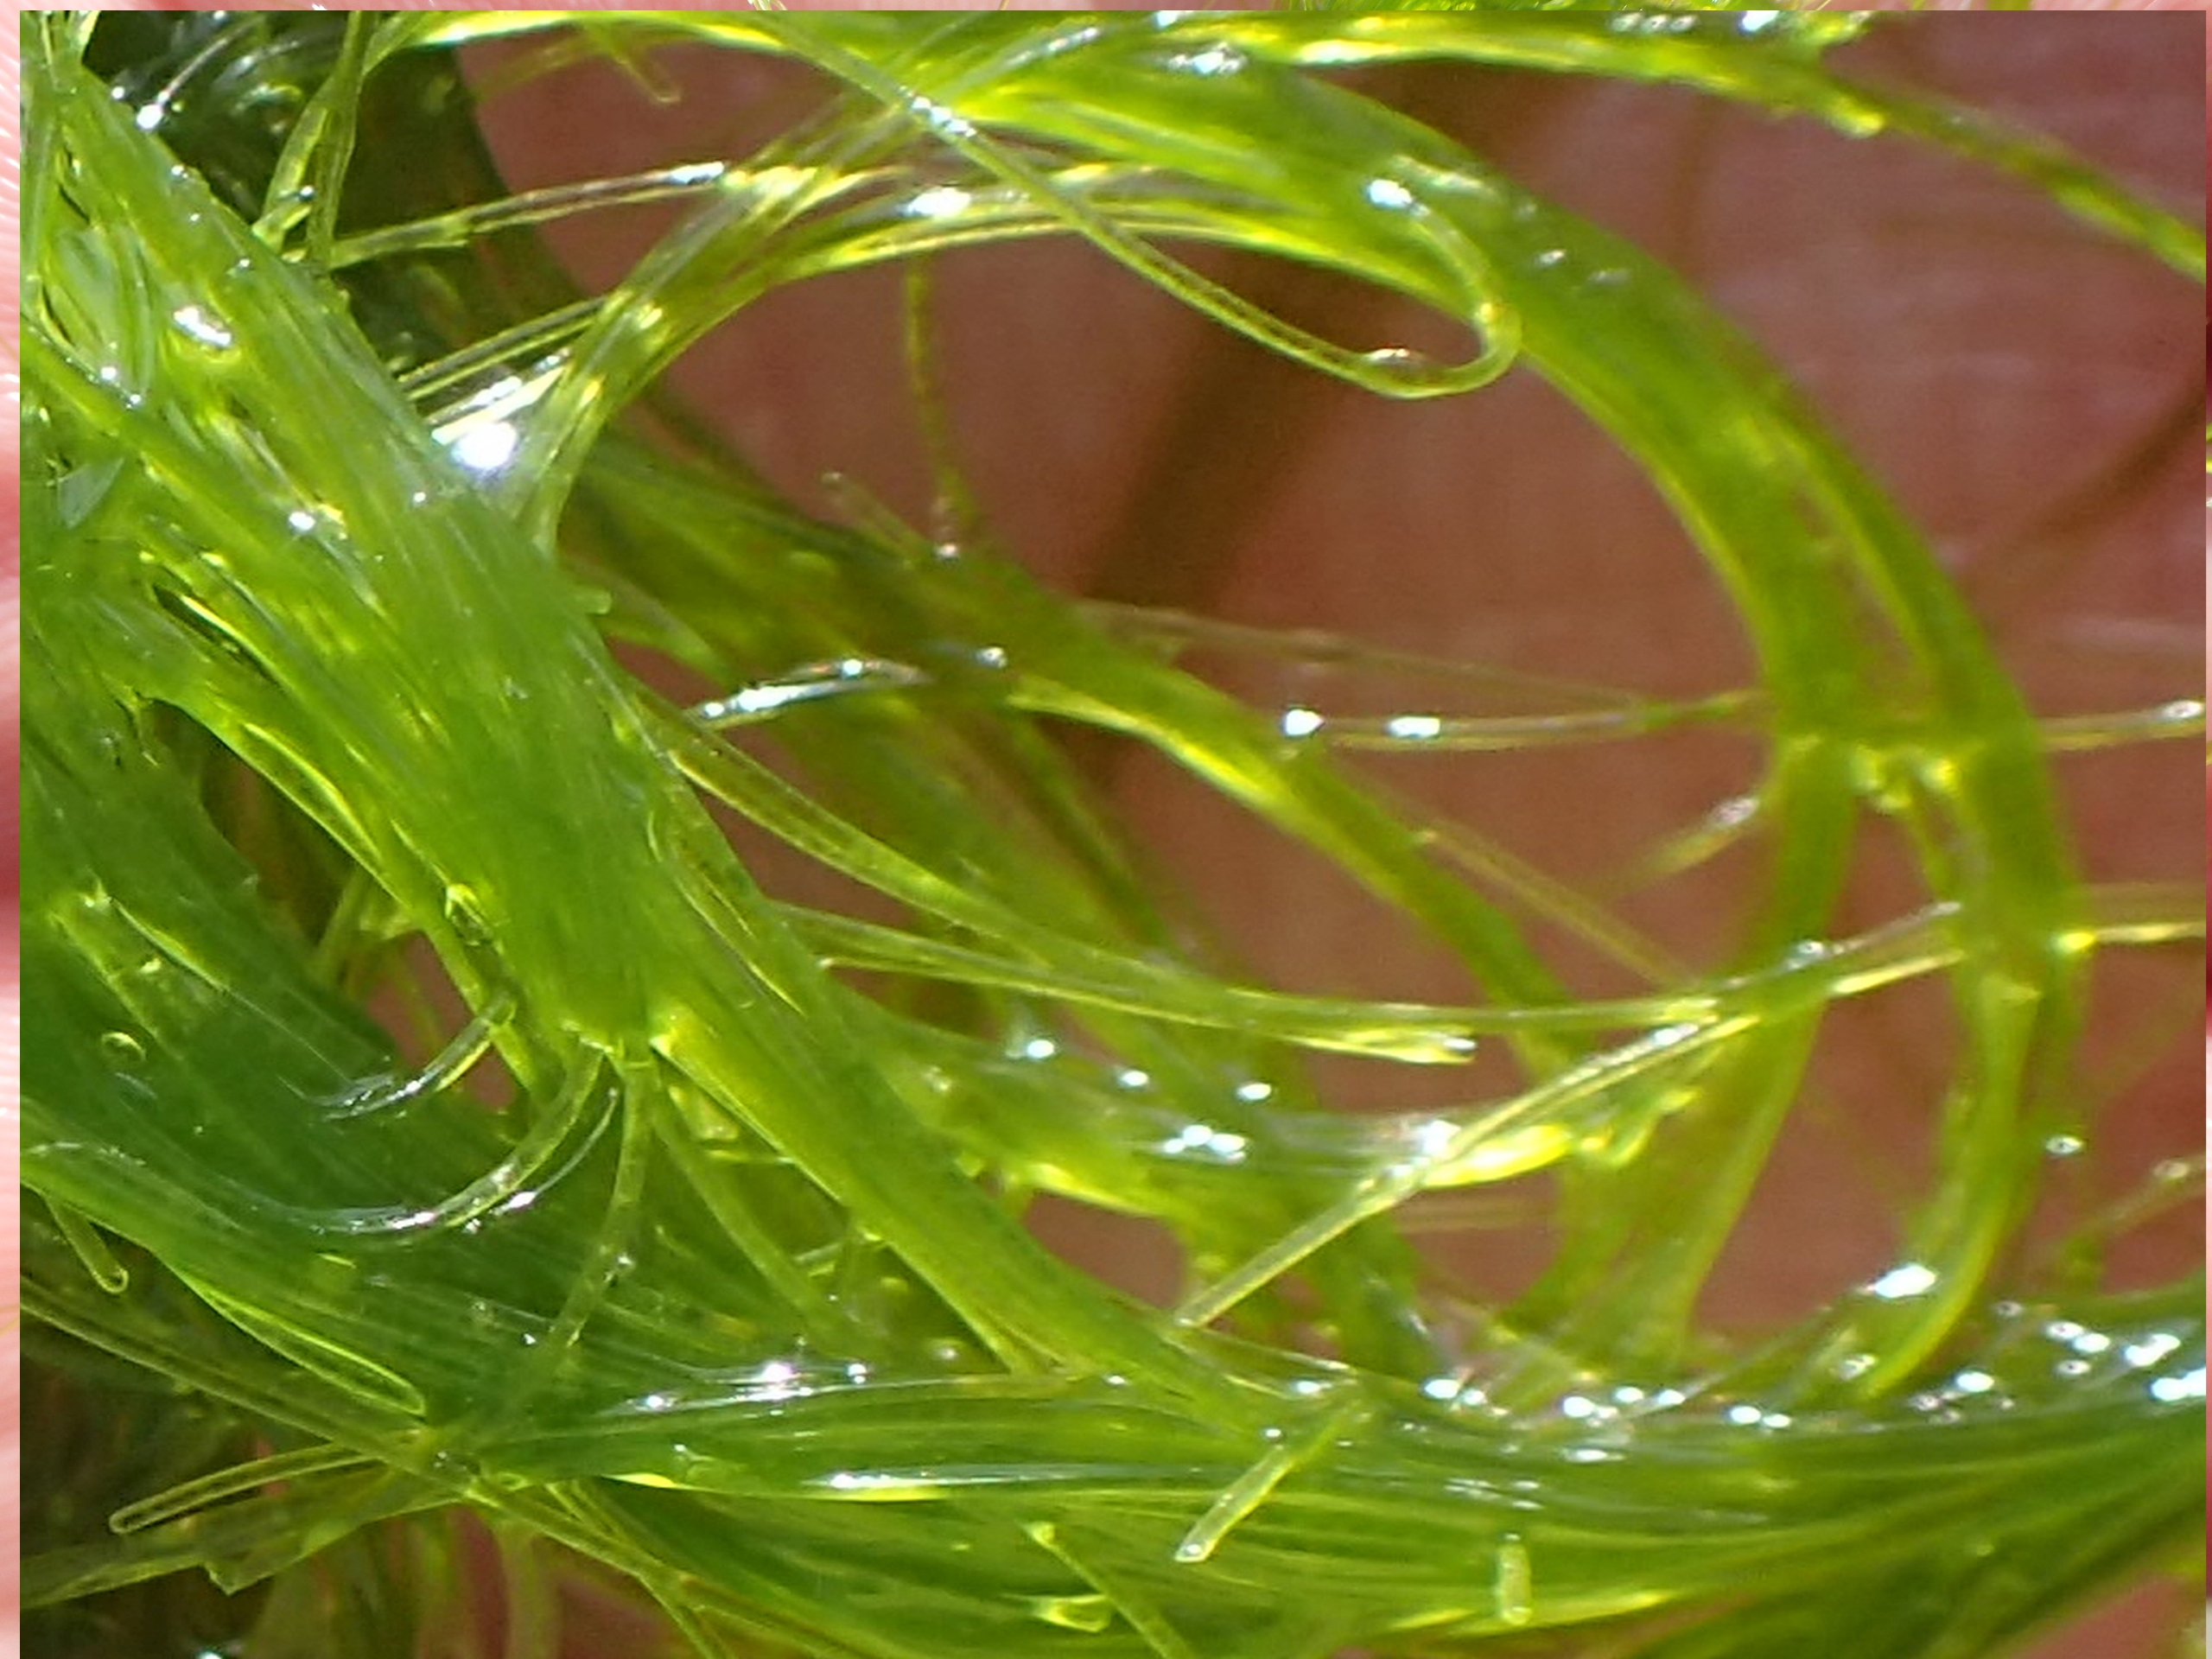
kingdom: Plantae
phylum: Chlorophyta
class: Ulvophyceae
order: Cladophorales
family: Cladophoraceae
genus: Cladophora
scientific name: Cladophora
